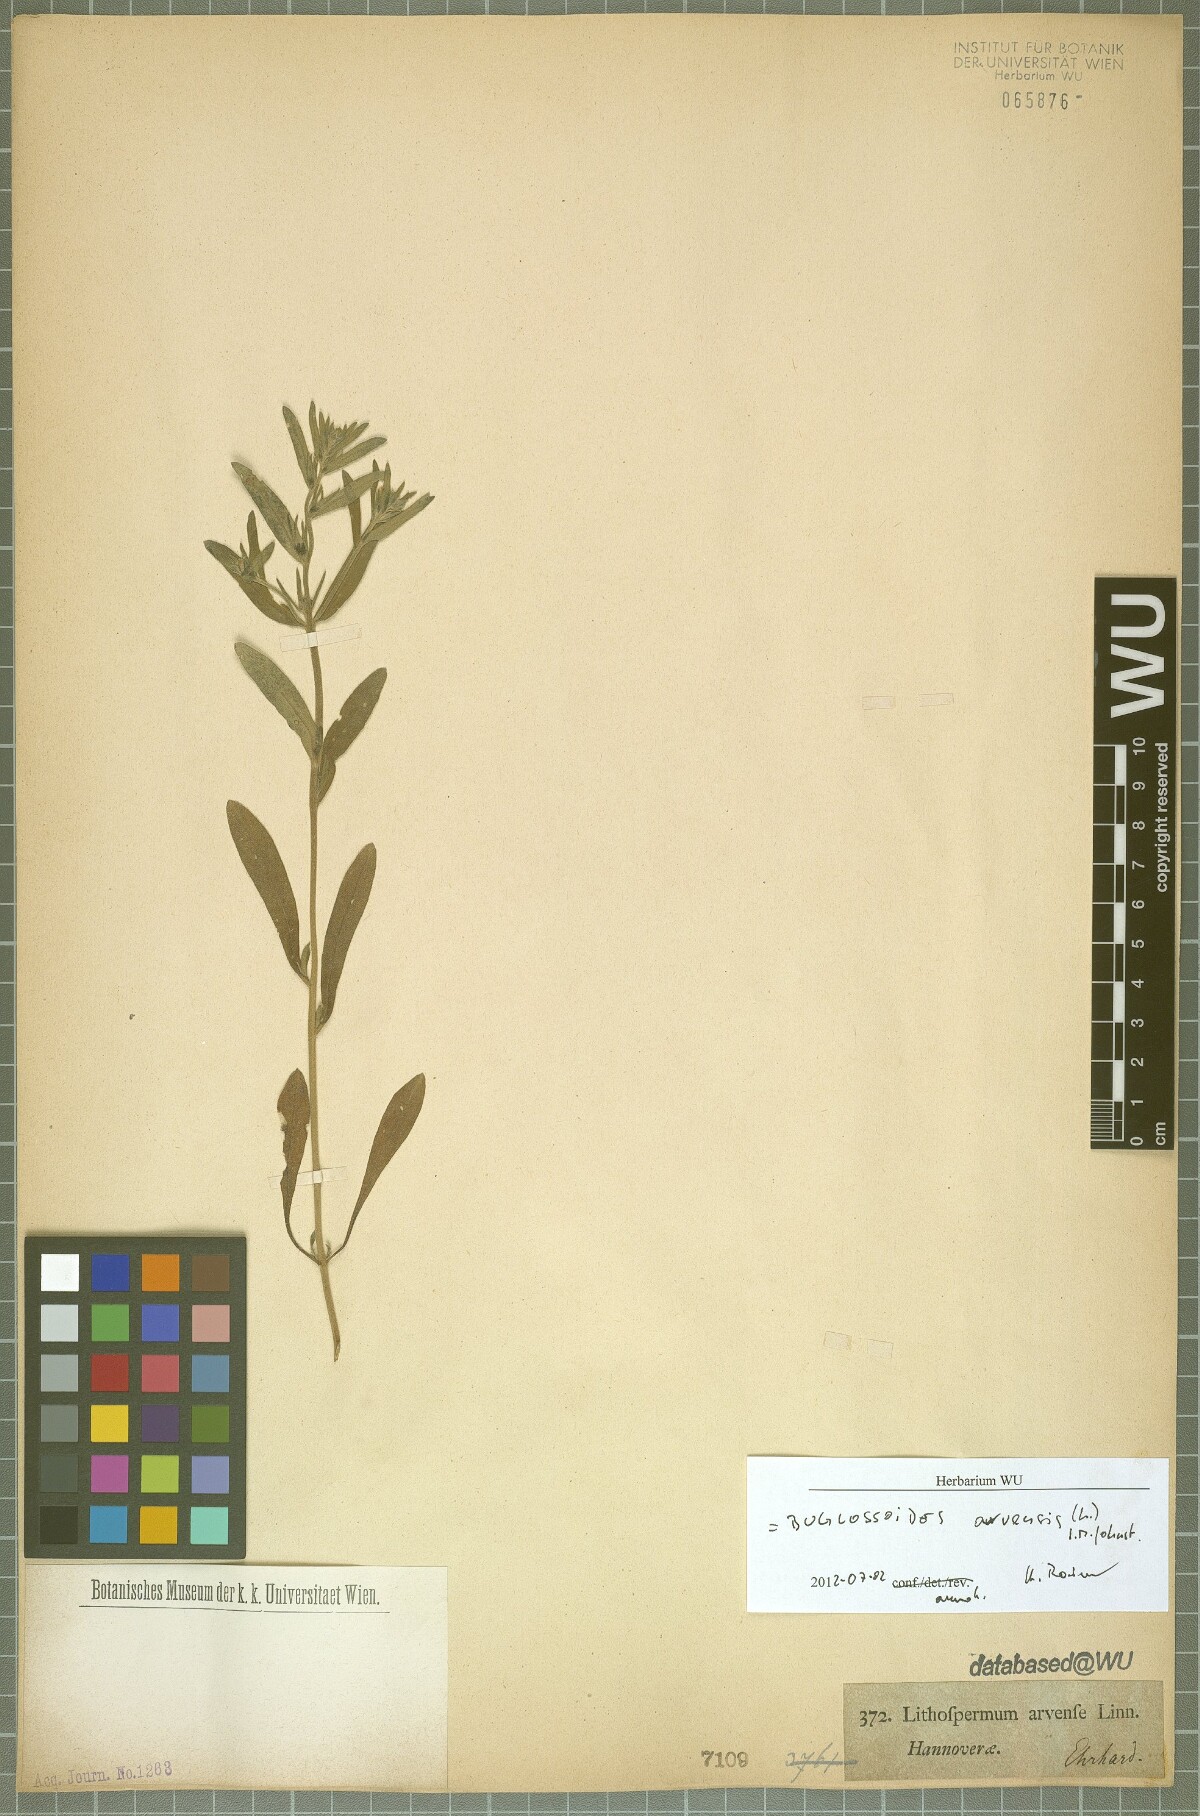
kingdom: Plantae
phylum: Tracheophyta
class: Magnoliopsida
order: Boraginales
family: Boraginaceae
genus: Buglossoides
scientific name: Buglossoides arvensis
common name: Corn gromwell
